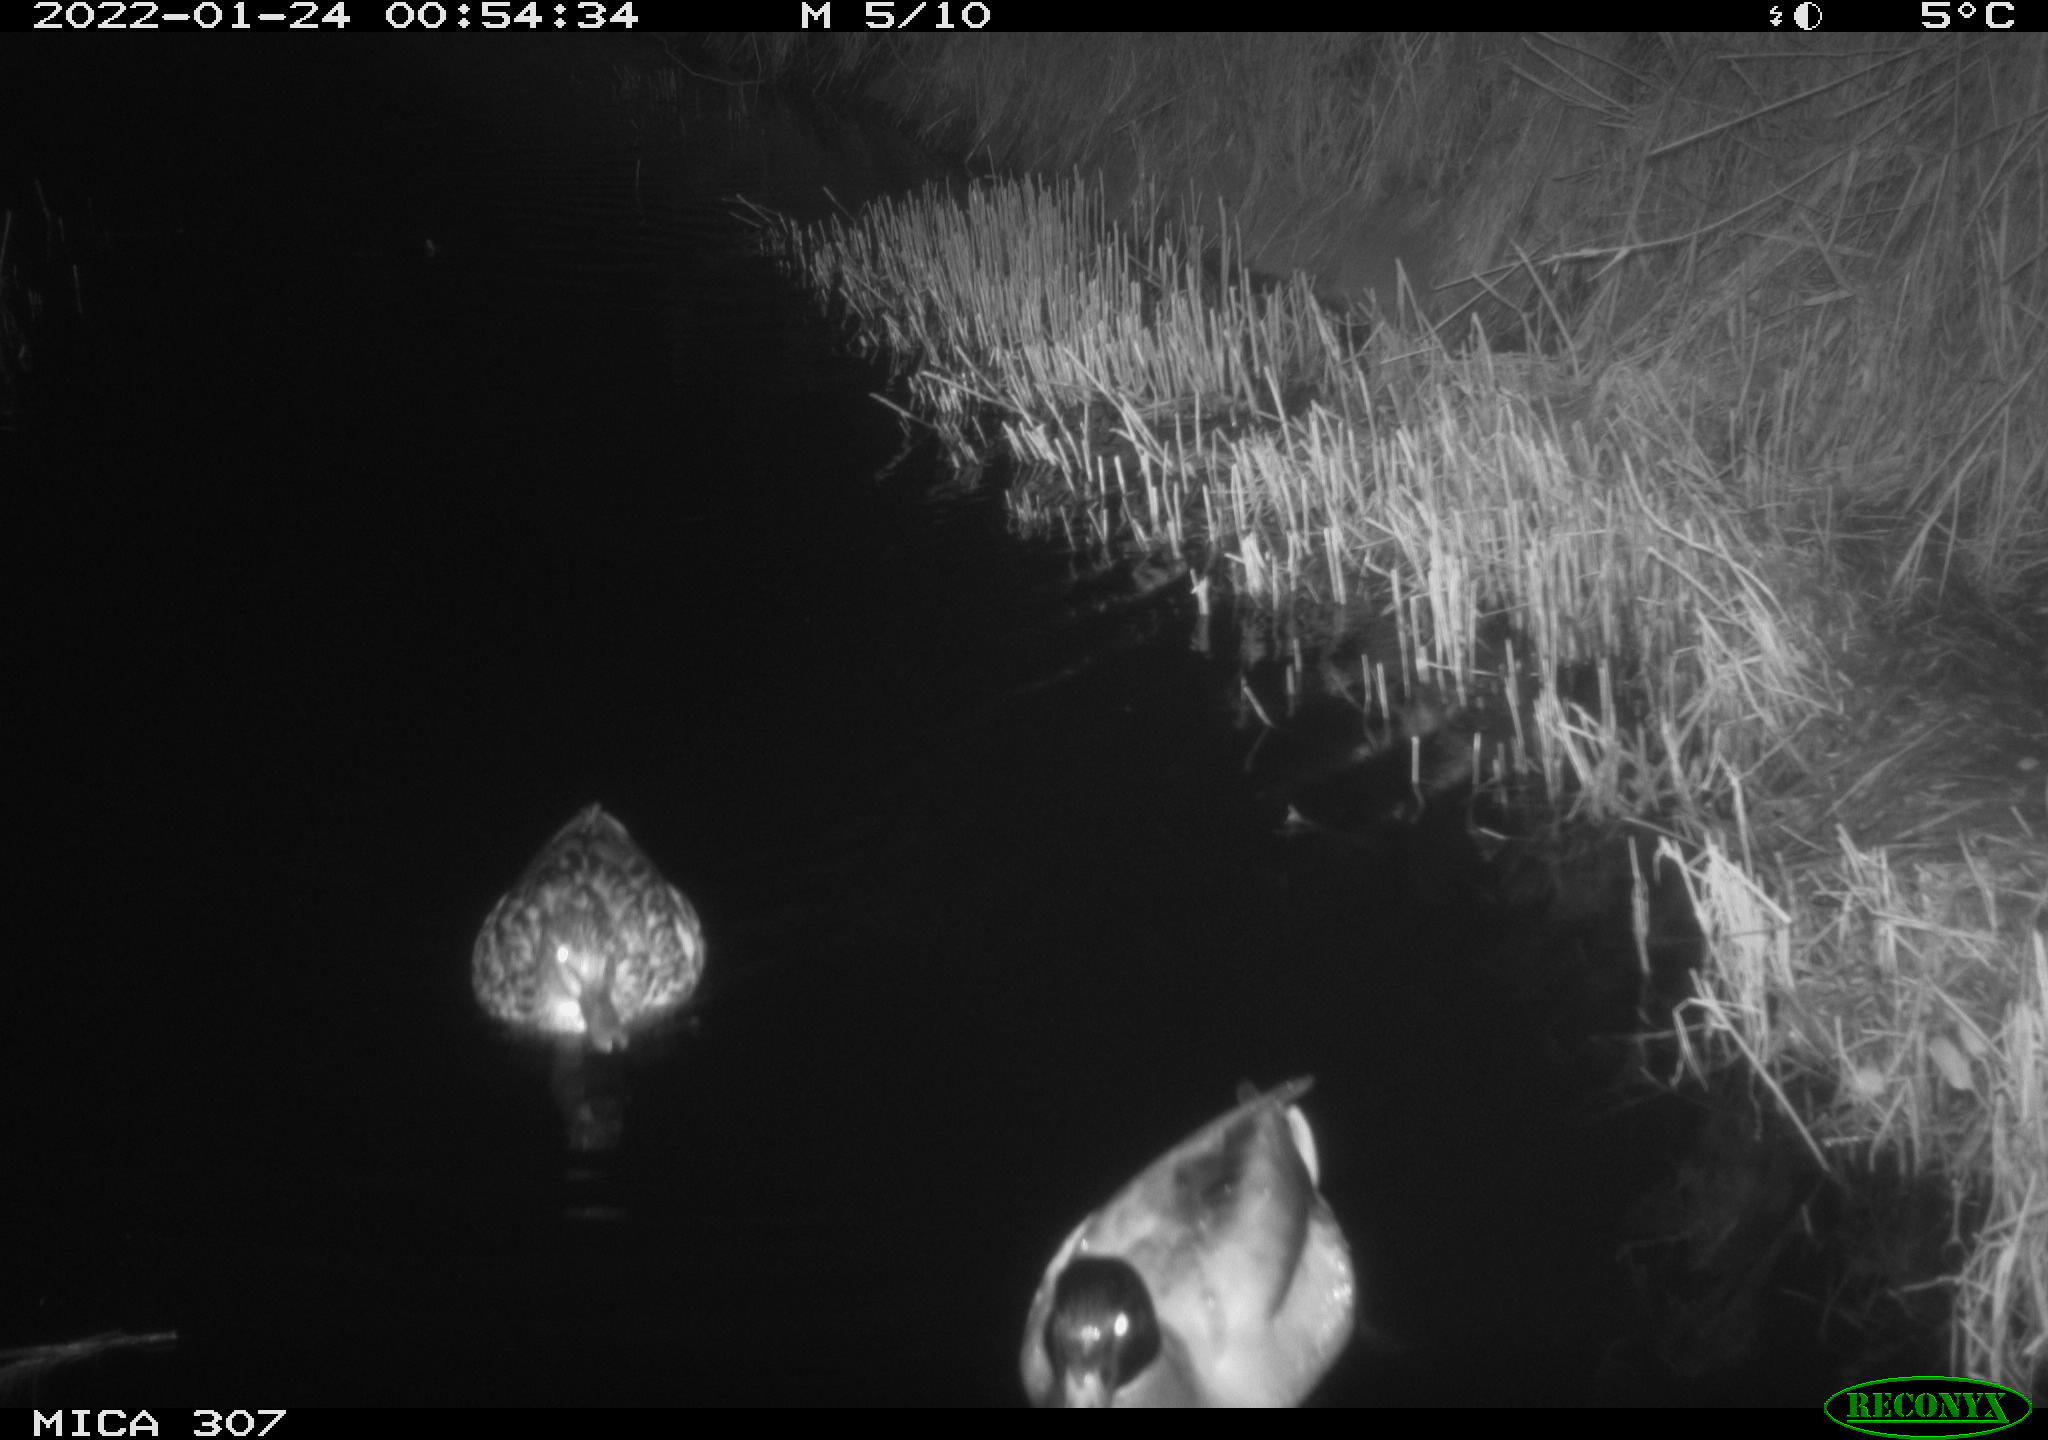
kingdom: Animalia
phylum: Chordata
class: Aves
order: Anseriformes
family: Anatidae
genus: Anas
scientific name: Anas
